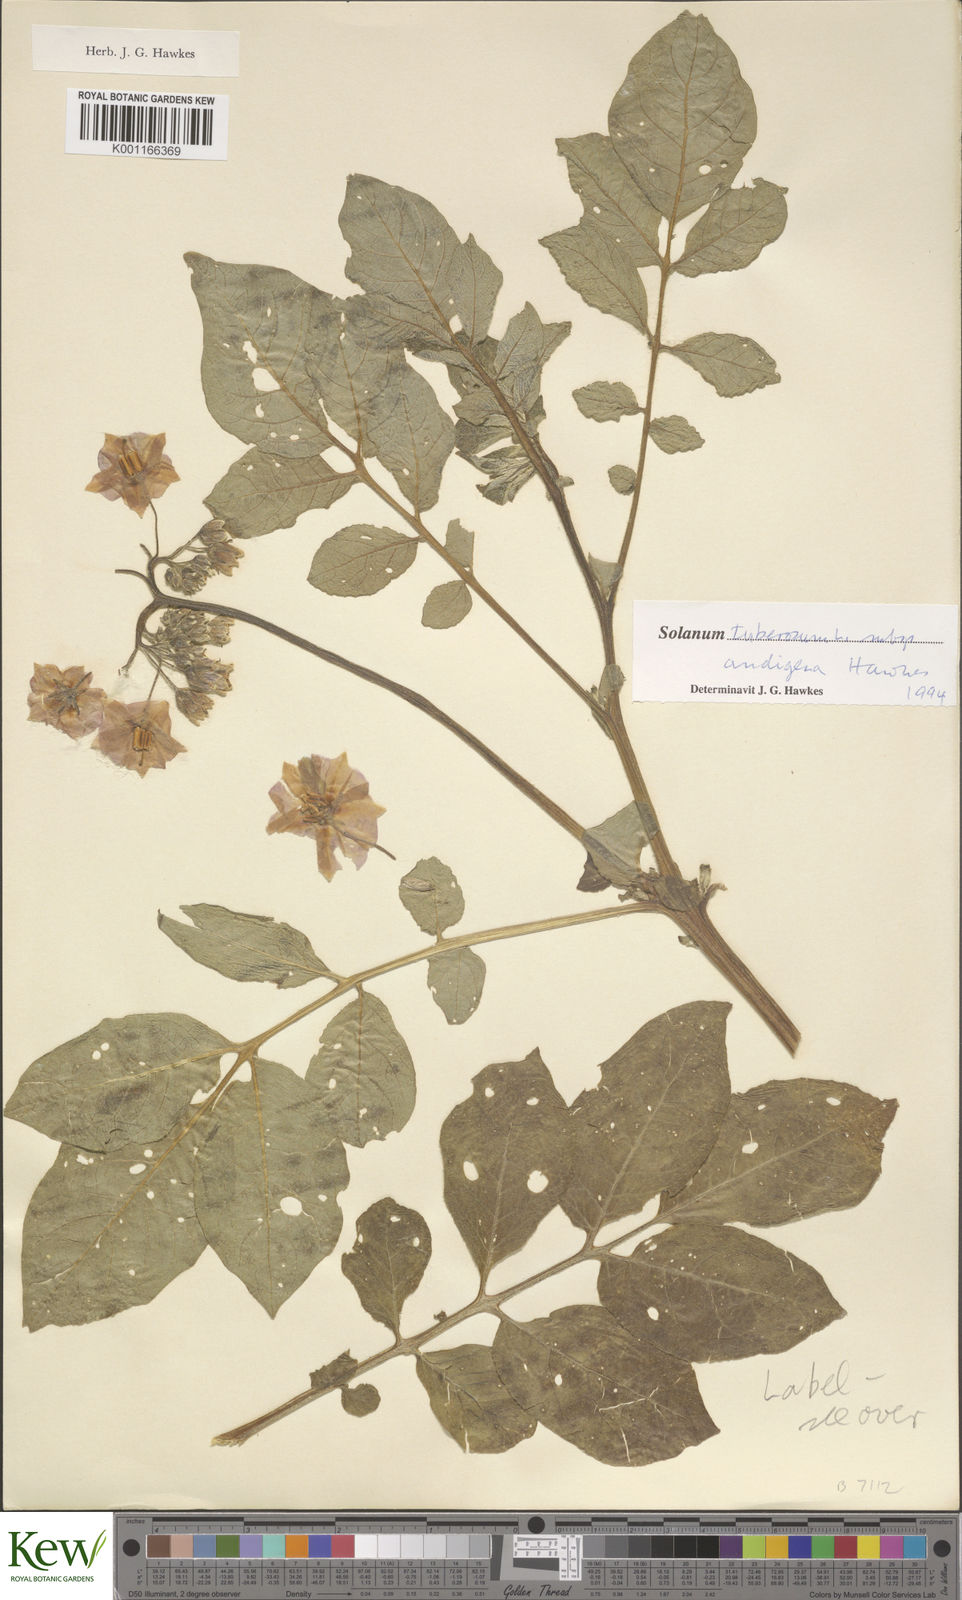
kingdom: Plantae
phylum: Tracheophyta
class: Magnoliopsida
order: Solanales
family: Solanaceae
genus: Solanum
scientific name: Solanum tuberosum
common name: Potato
